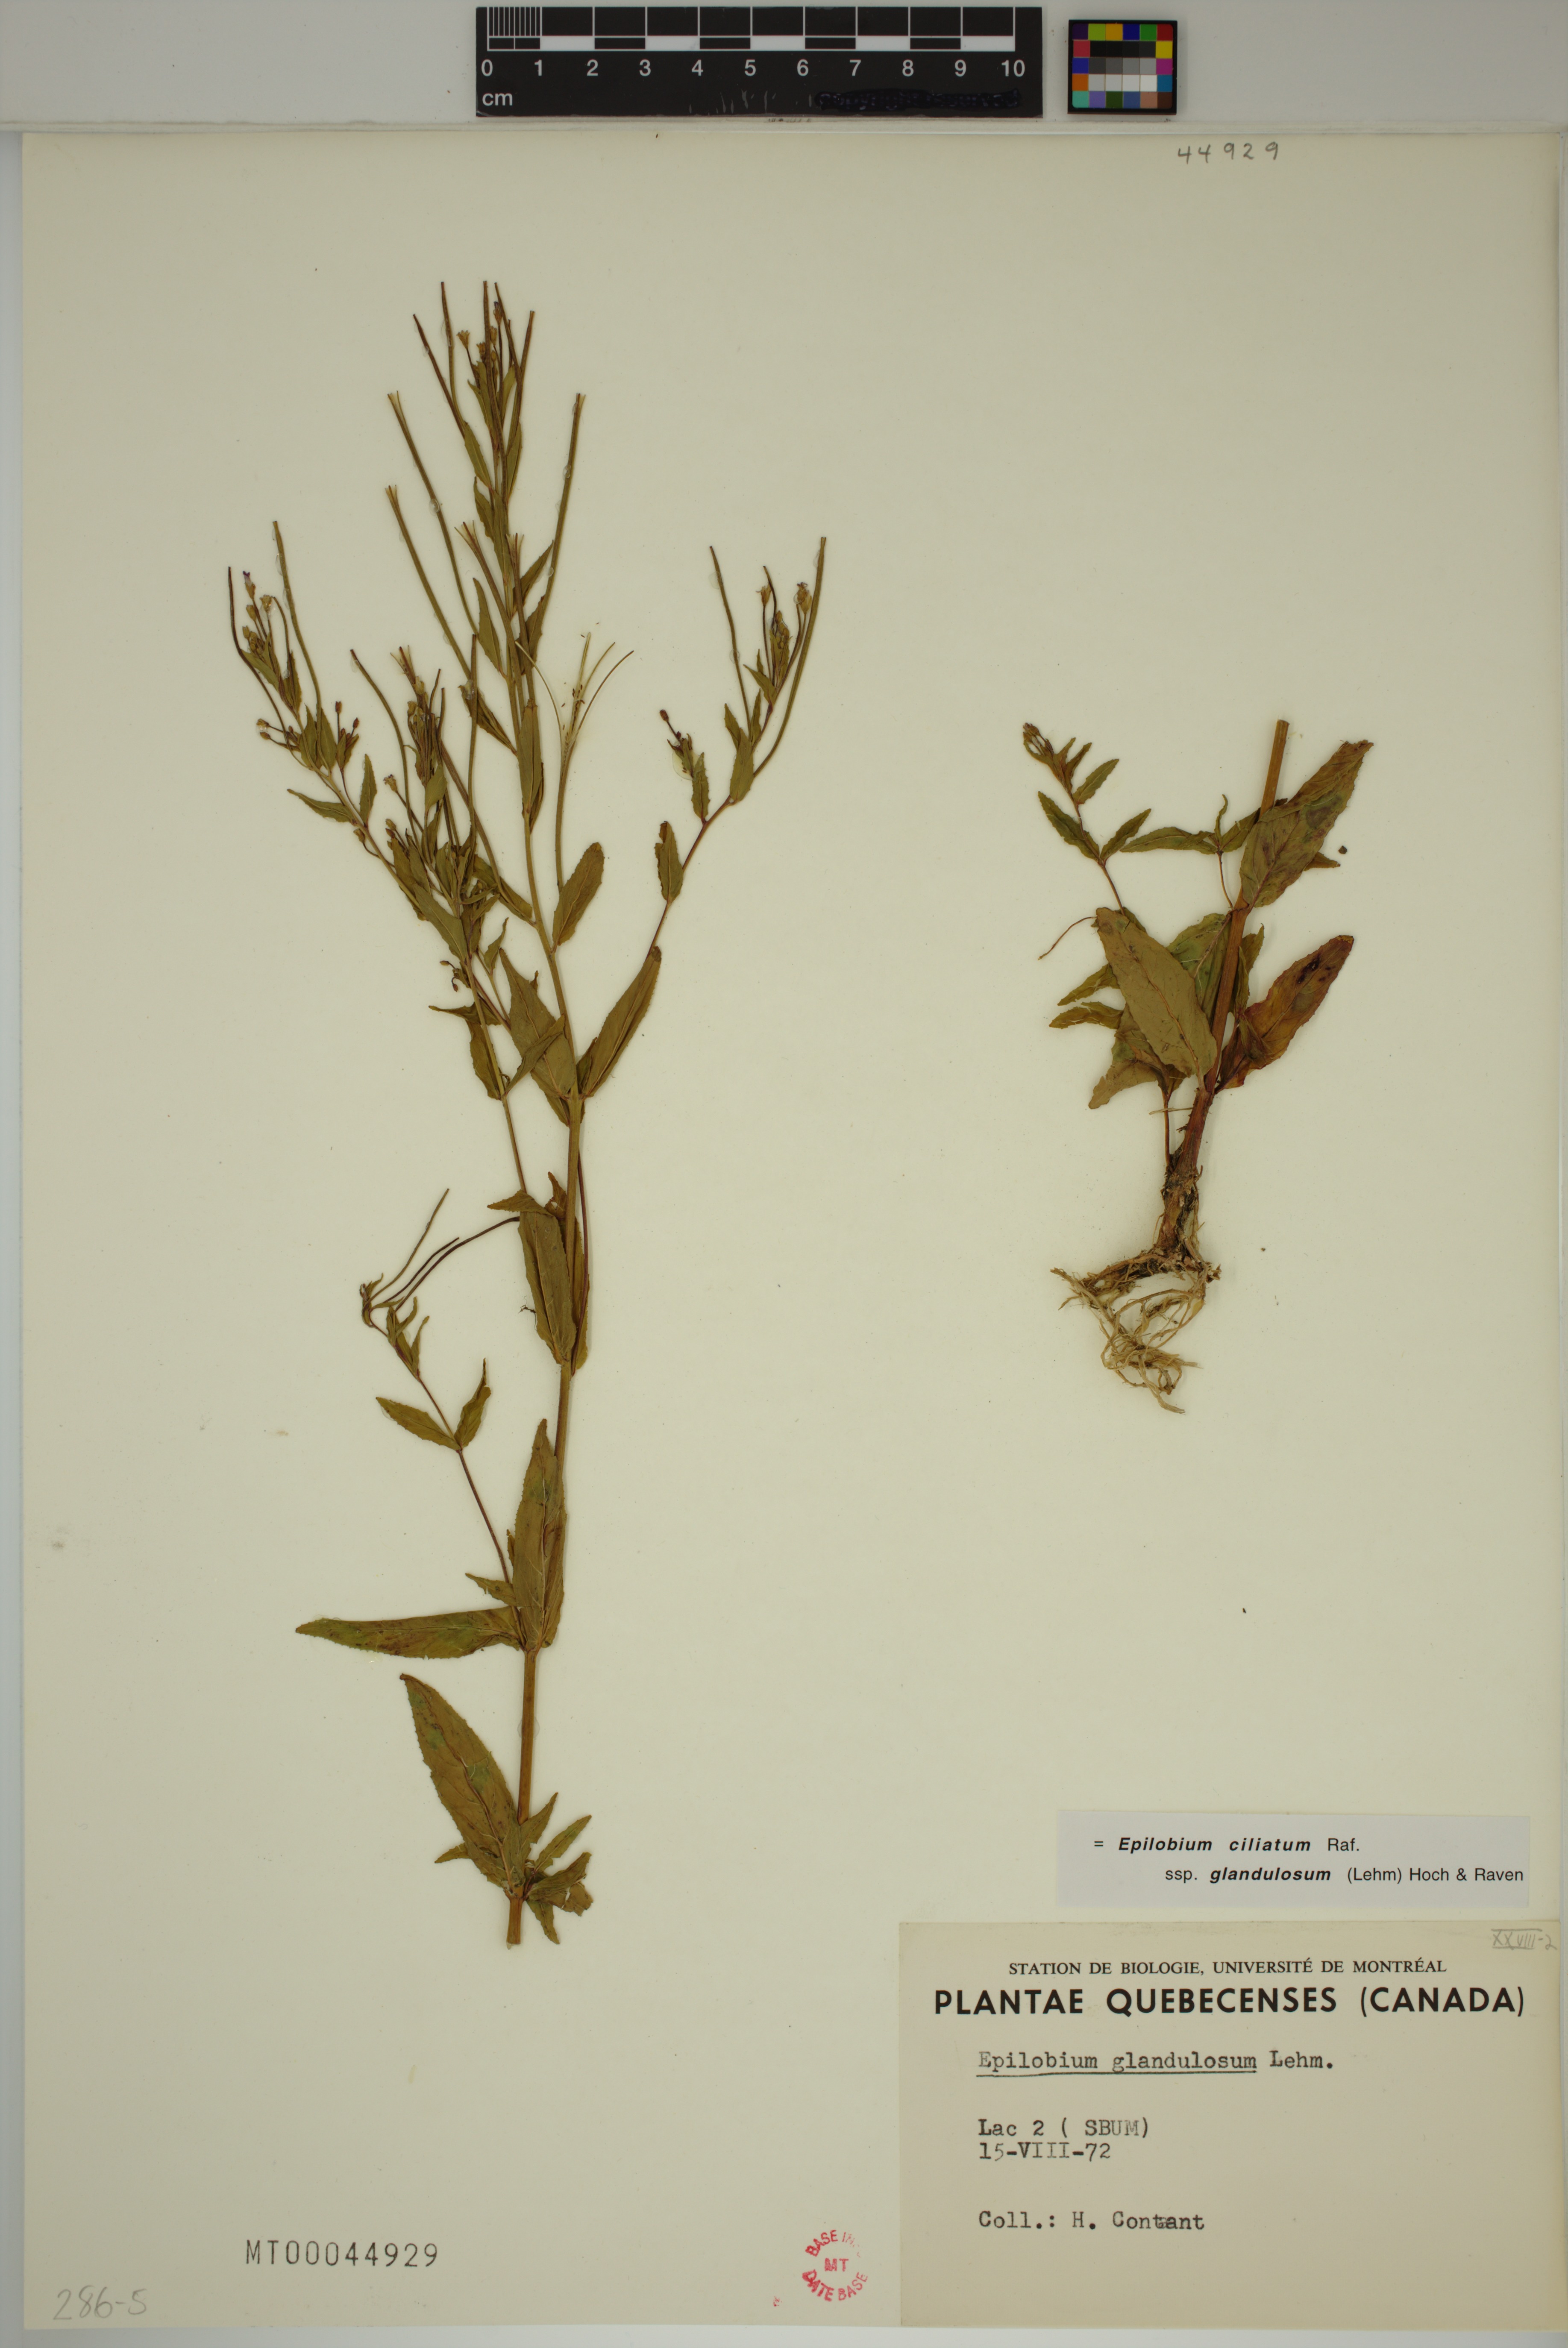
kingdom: Plantae
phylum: Tracheophyta
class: Magnoliopsida
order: Myrtales
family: Onagraceae
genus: Epilobium
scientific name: Epilobium ciliatum
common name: American willowherb
